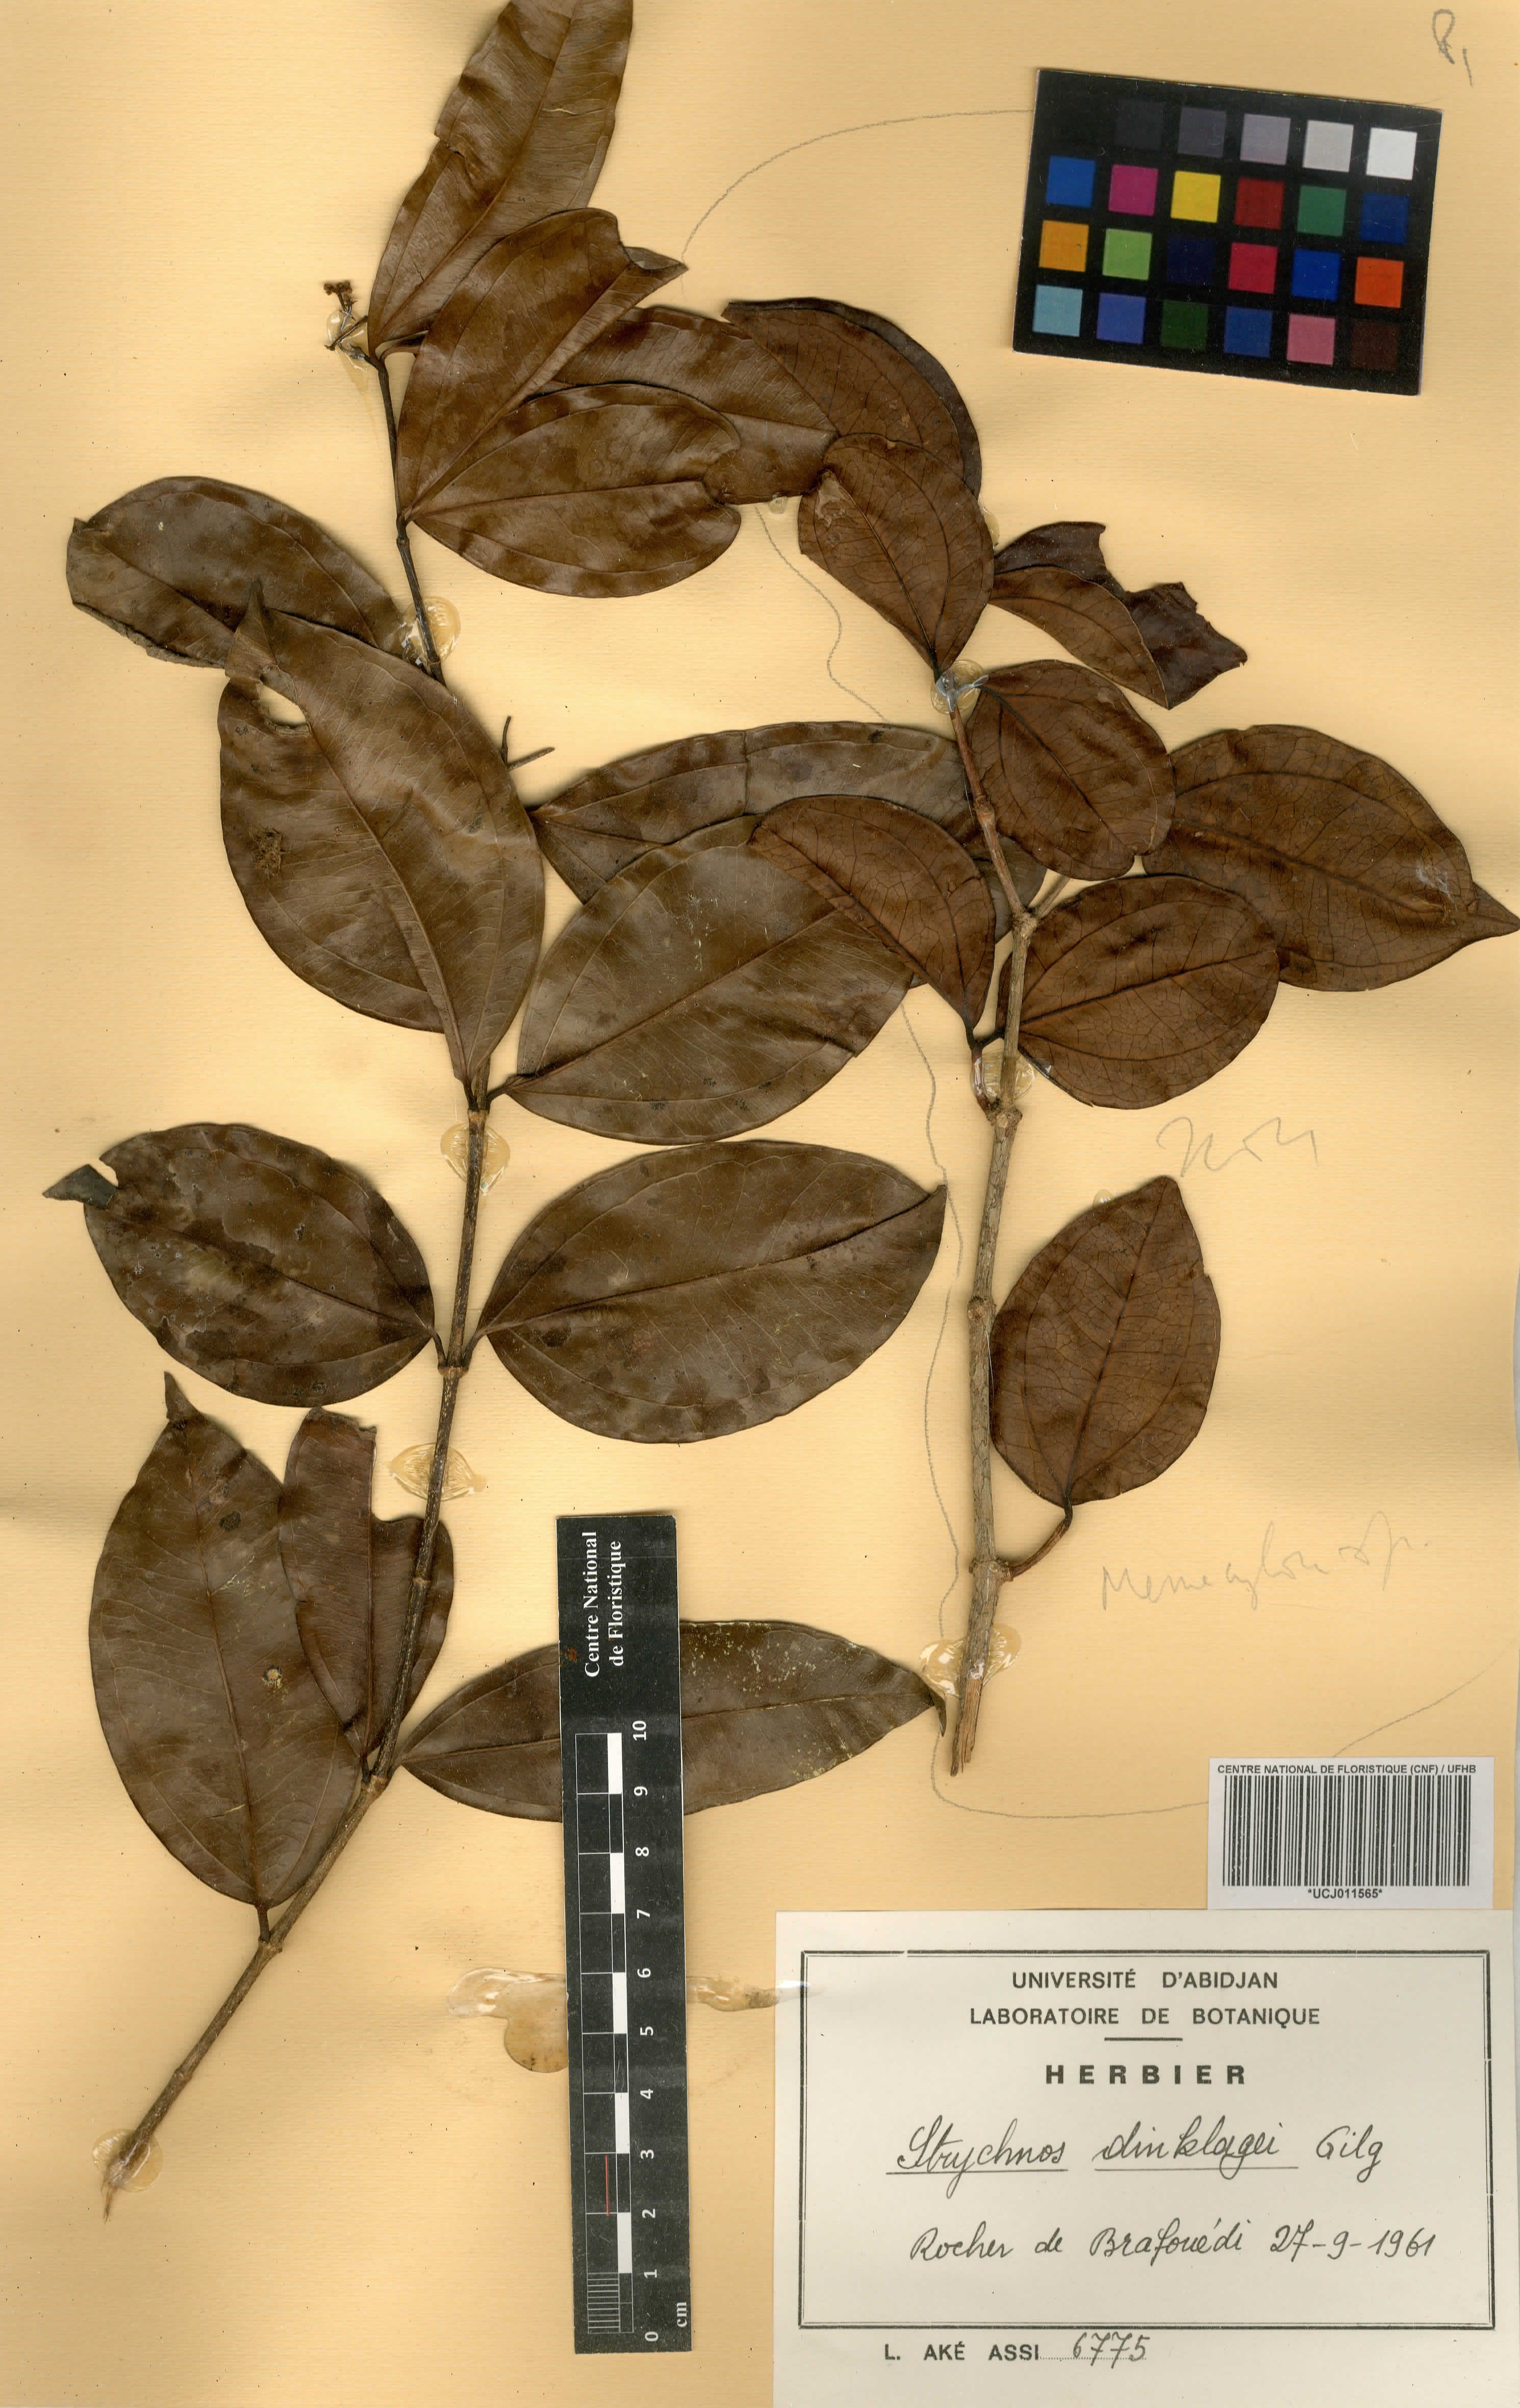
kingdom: Plantae
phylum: Tracheophyta
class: Magnoliopsida
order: Gentianales
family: Loganiaceae
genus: Strychnos
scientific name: Strychnos dinklagei
